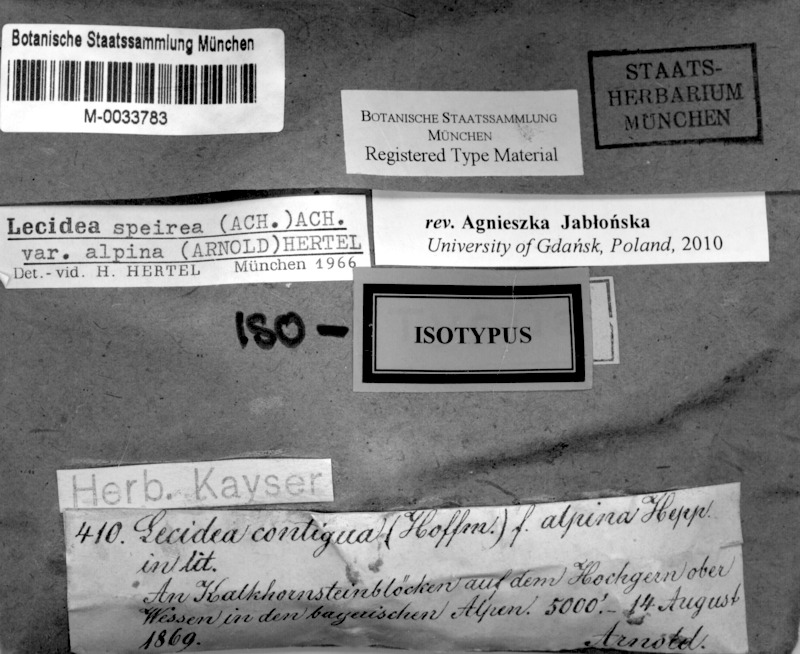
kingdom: Fungi
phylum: Ascomycota
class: Lecanoromycetes
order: Lecideales
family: Lecideaceae
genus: Porpidia
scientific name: Porpidia speirea
